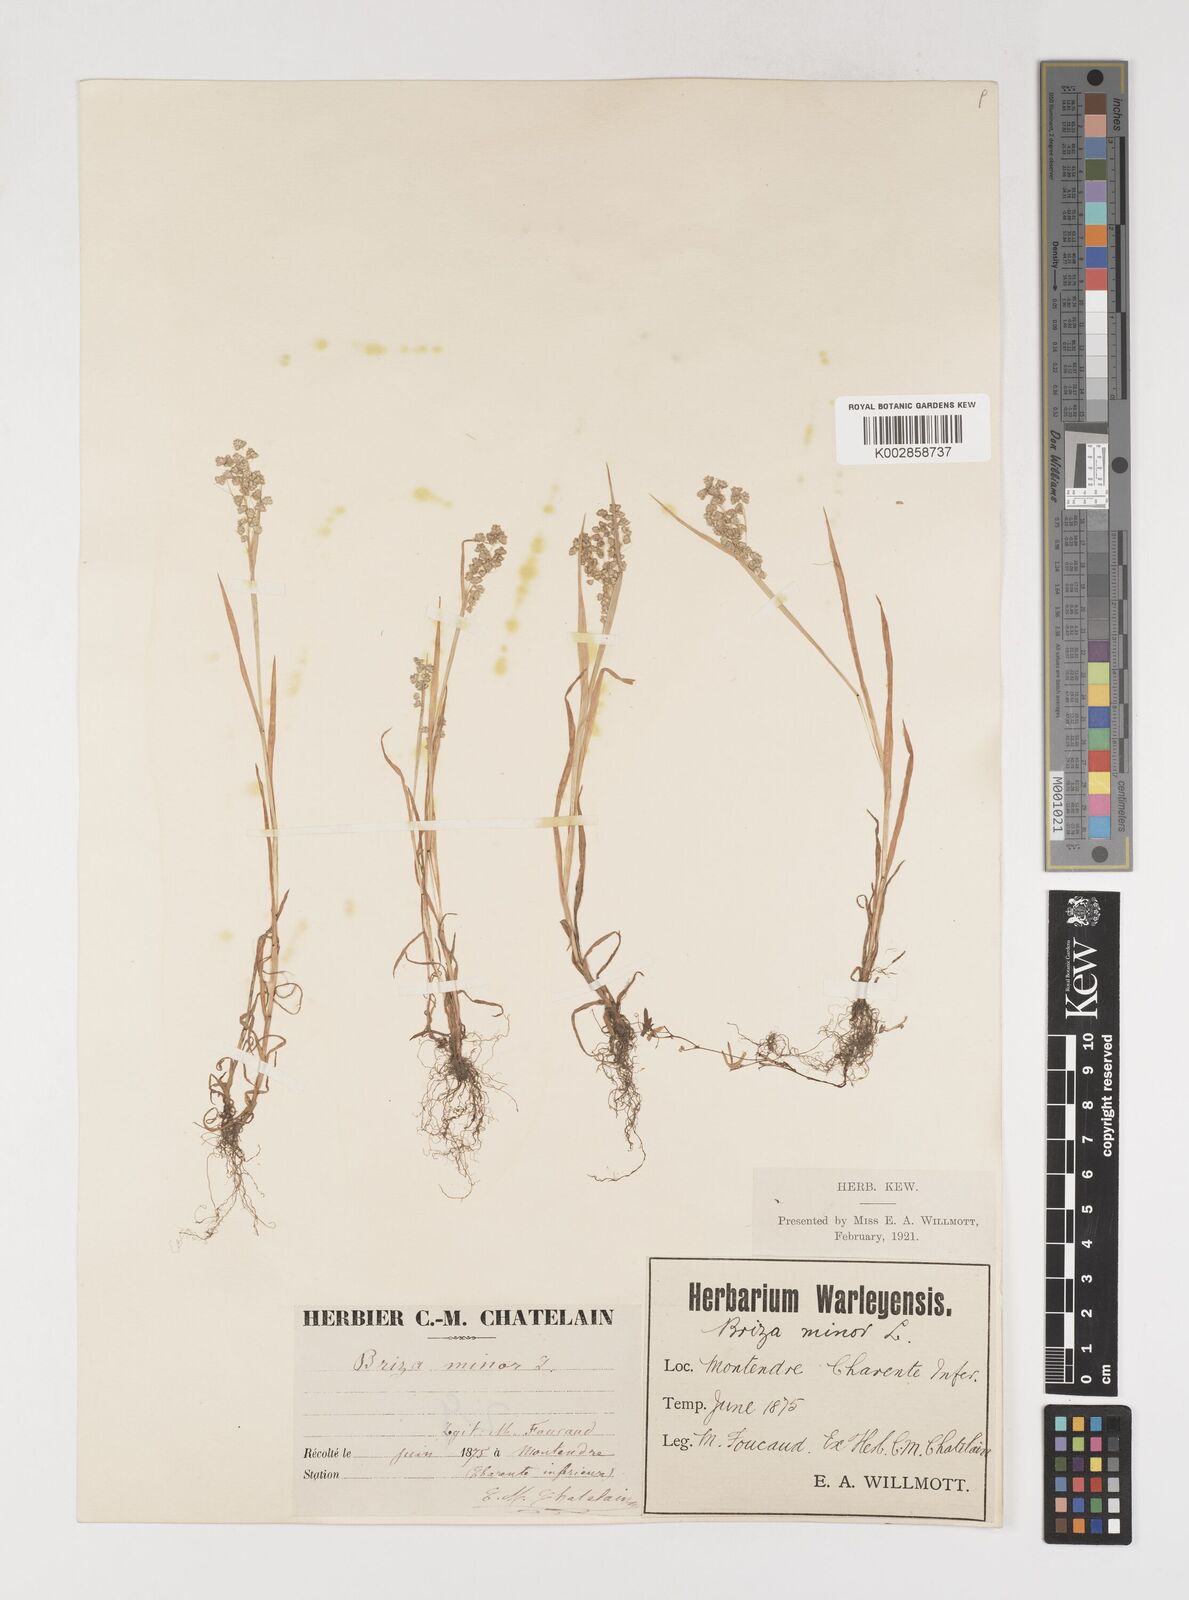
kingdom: Plantae
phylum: Tracheophyta
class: Liliopsida
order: Poales
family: Poaceae
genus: Briza
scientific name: Briza minor
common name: Lesser quaking-grass
